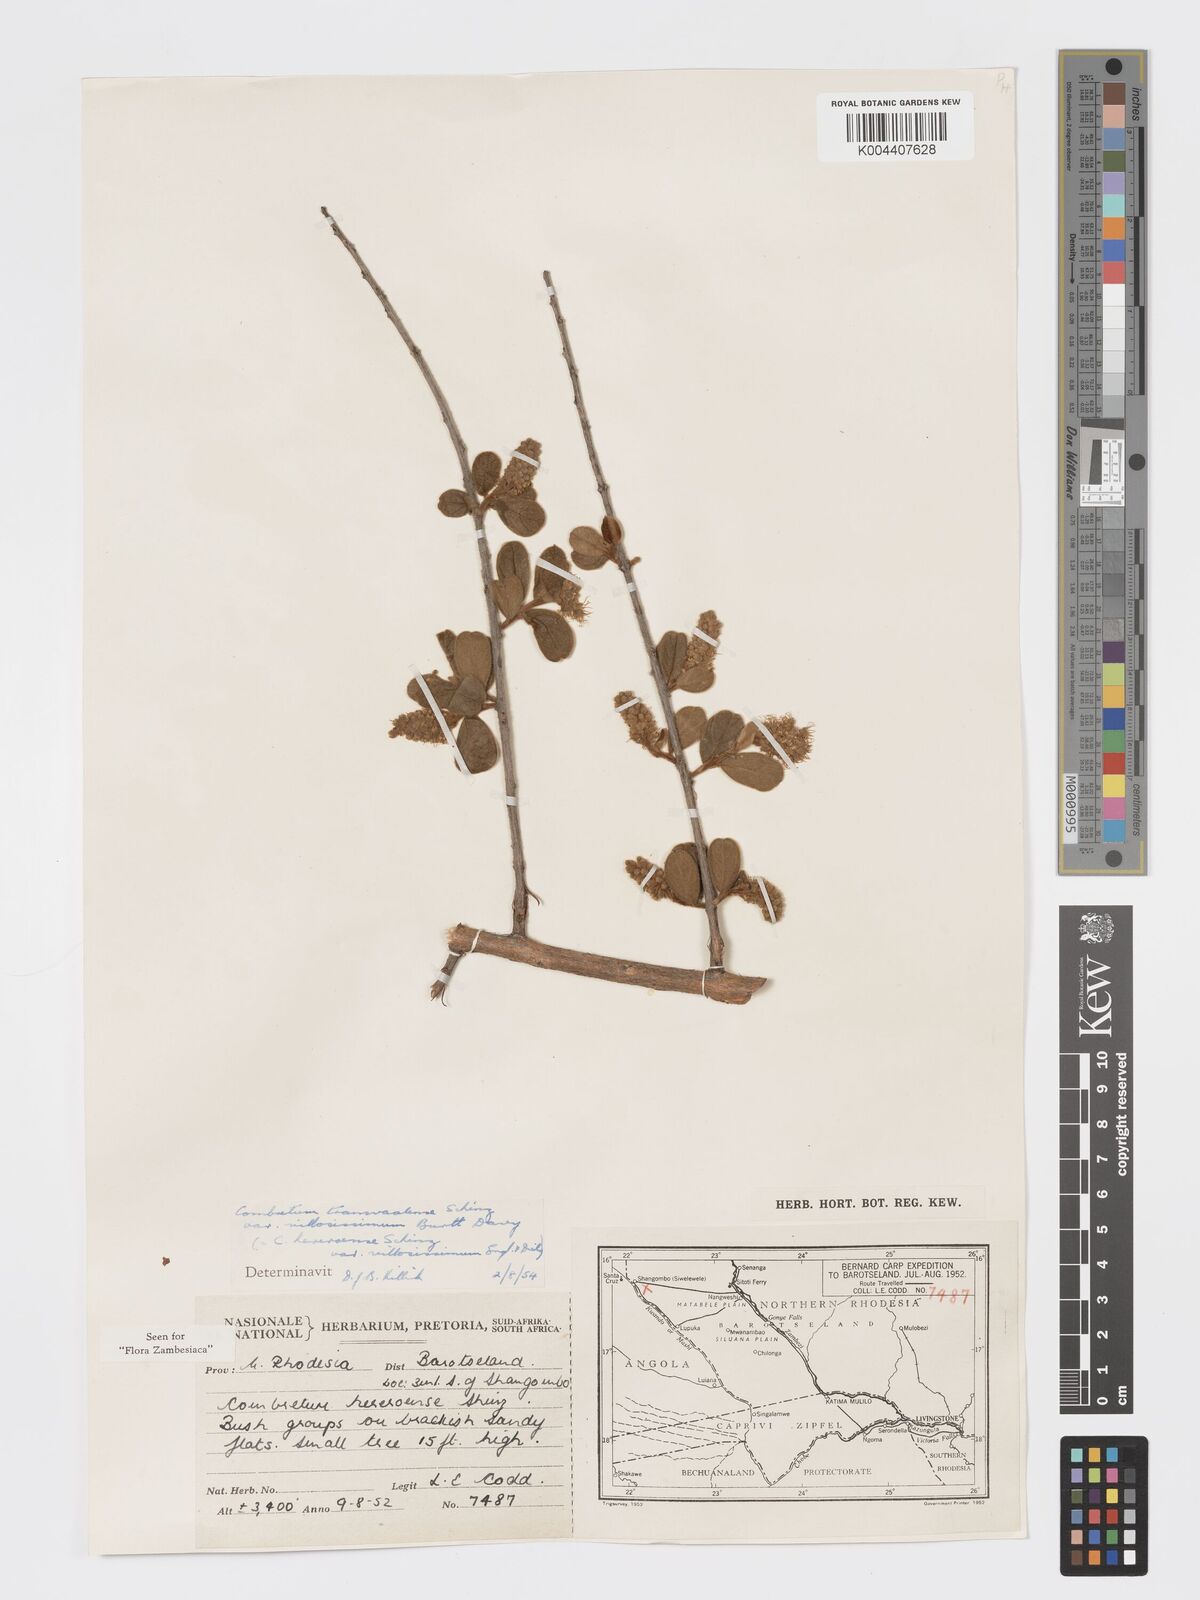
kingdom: Plantae
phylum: Tracheophyta
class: Magnoliopsida
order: Myrtales
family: Combretaceae
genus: Combretum
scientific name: Combretum hereroense
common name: Russet bushwillow
